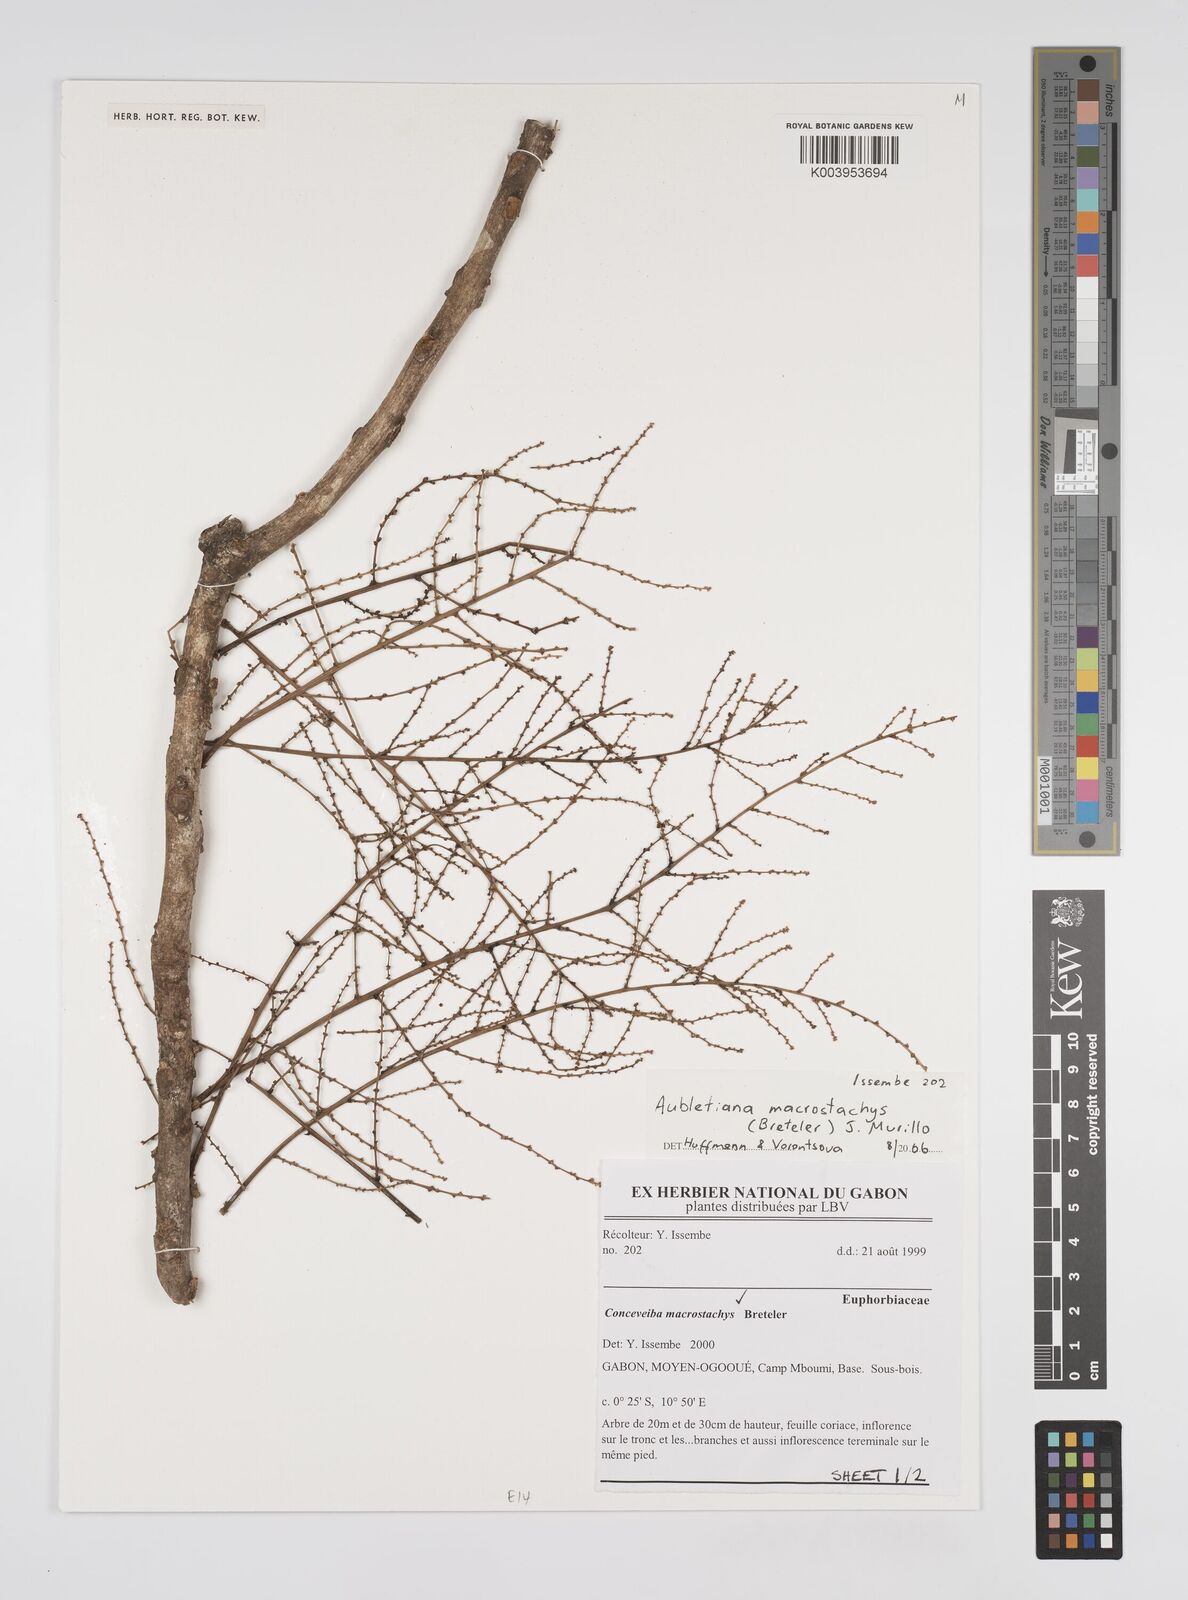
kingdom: Plantae
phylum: Tracheophyta
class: Magnoliopsida
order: Malpighiales
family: Euphorbiaceae
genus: Aubletiana
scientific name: Aubletiana
